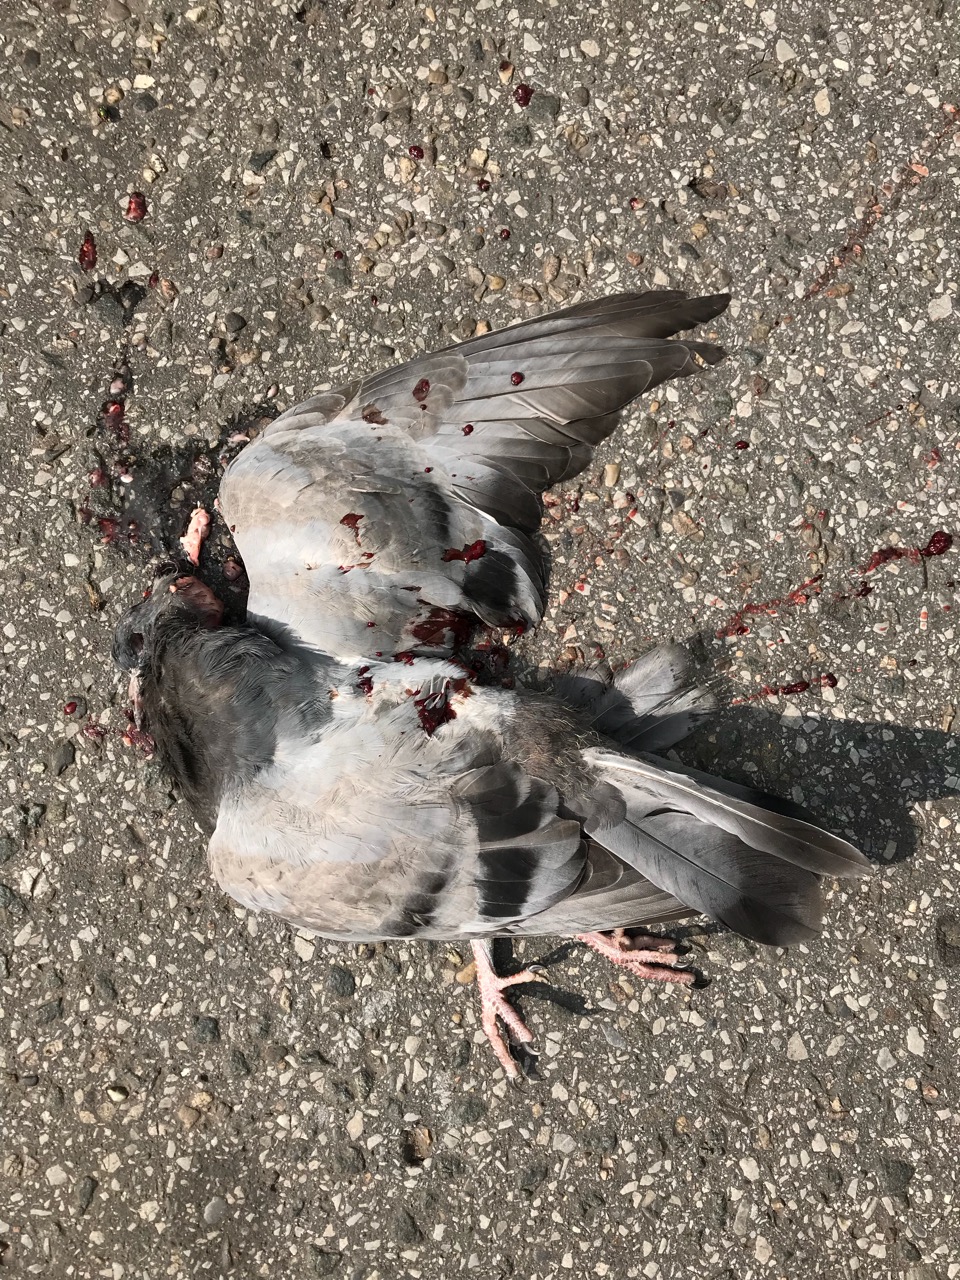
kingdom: Animalia
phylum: Chordata
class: Aves
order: Columbiformes
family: Columbidae
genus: Columba
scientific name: Columba livia
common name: Rock pigeon
